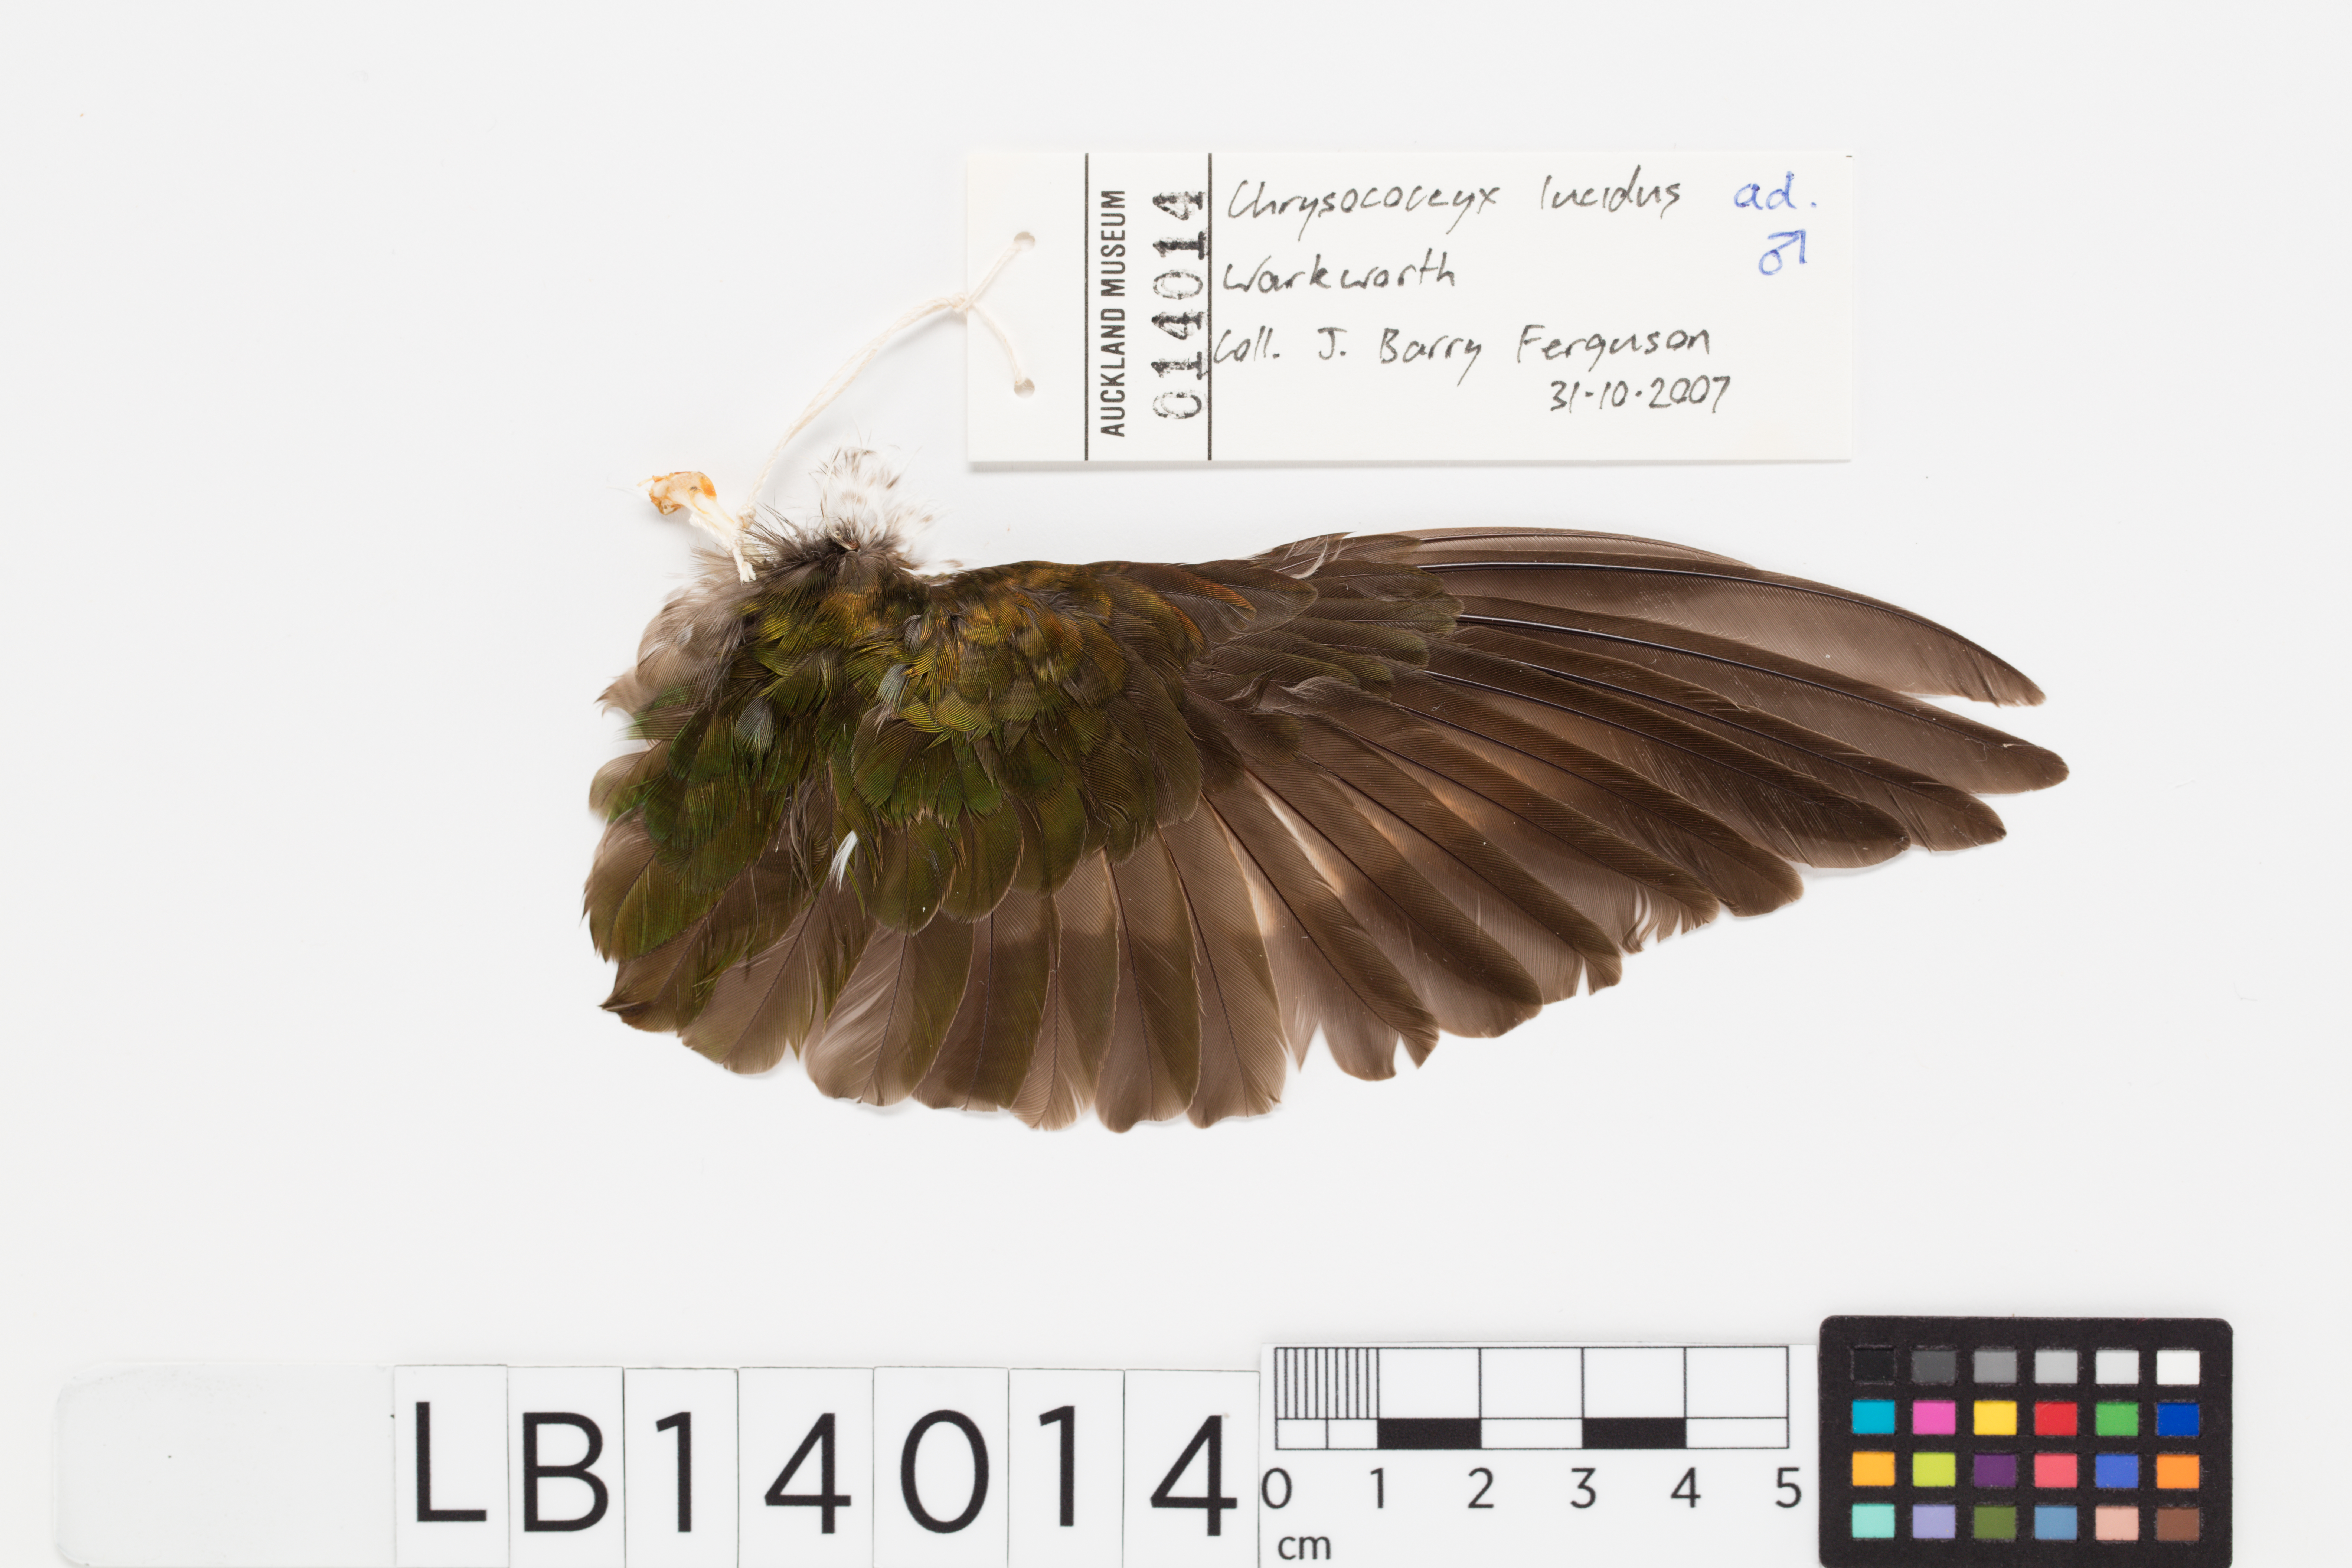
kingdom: Animalia
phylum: Chordata
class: Aves
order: Cuculiformes
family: Cuculidae
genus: Chrysococcyx
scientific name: Chrysococcyx lucidus
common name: Shining bronze cuckoo
